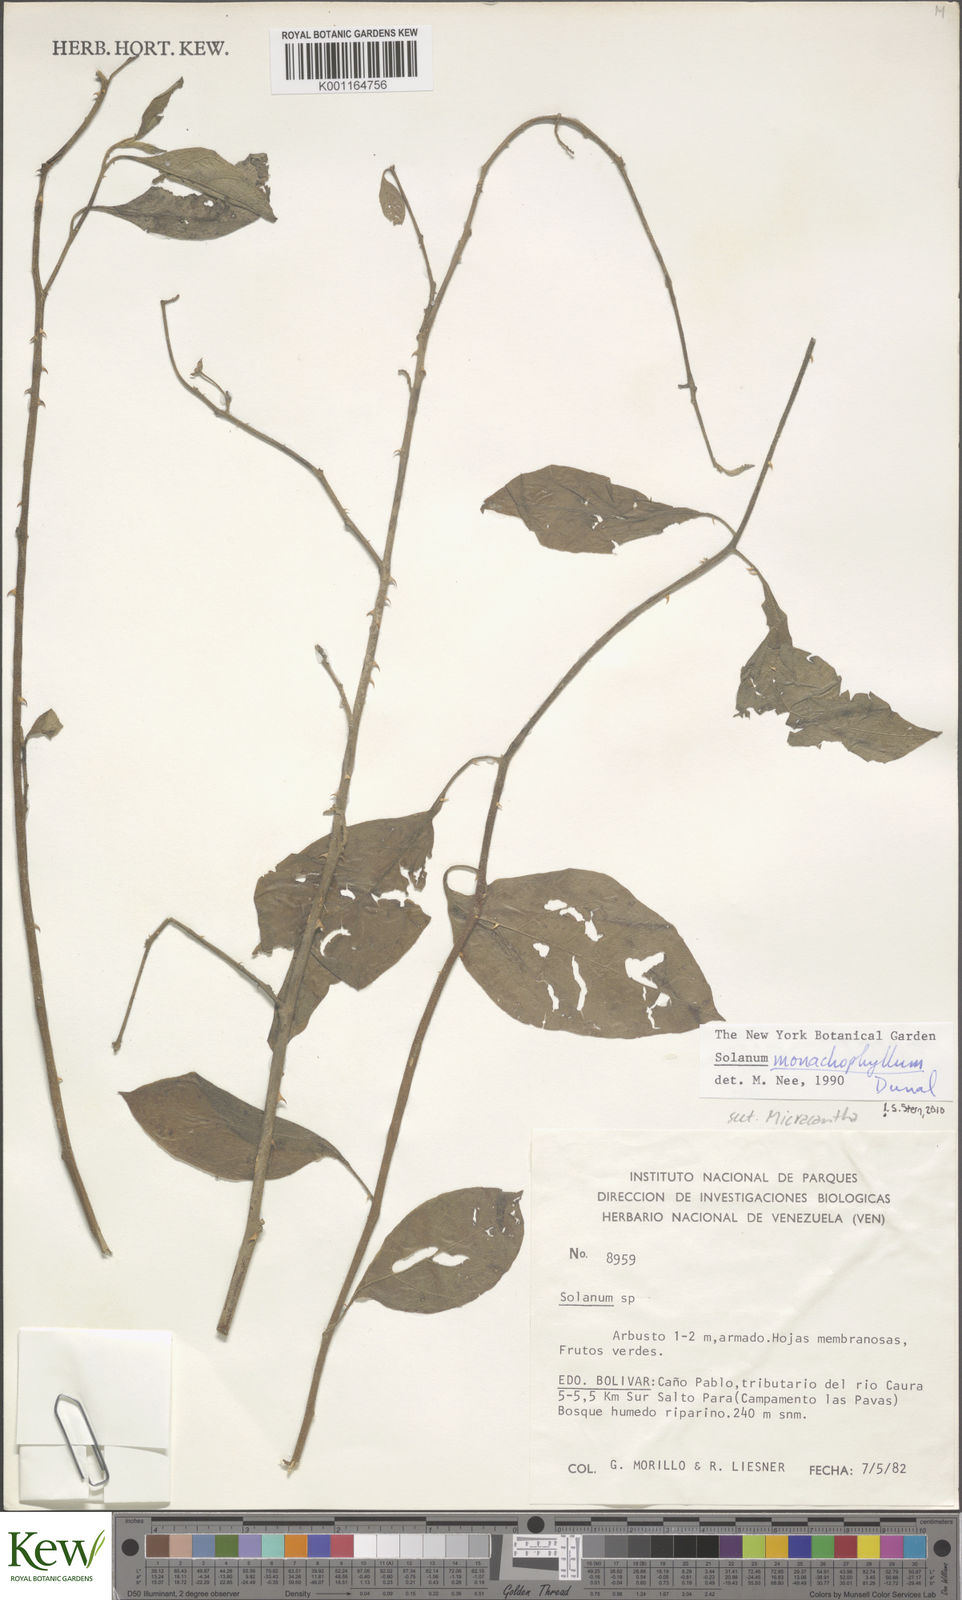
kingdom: Plantae
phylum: Tracheophyta
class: Magnoliopsida
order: Solanales
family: Solanaceae
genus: Solanum
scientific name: Solanum monachophyllum
